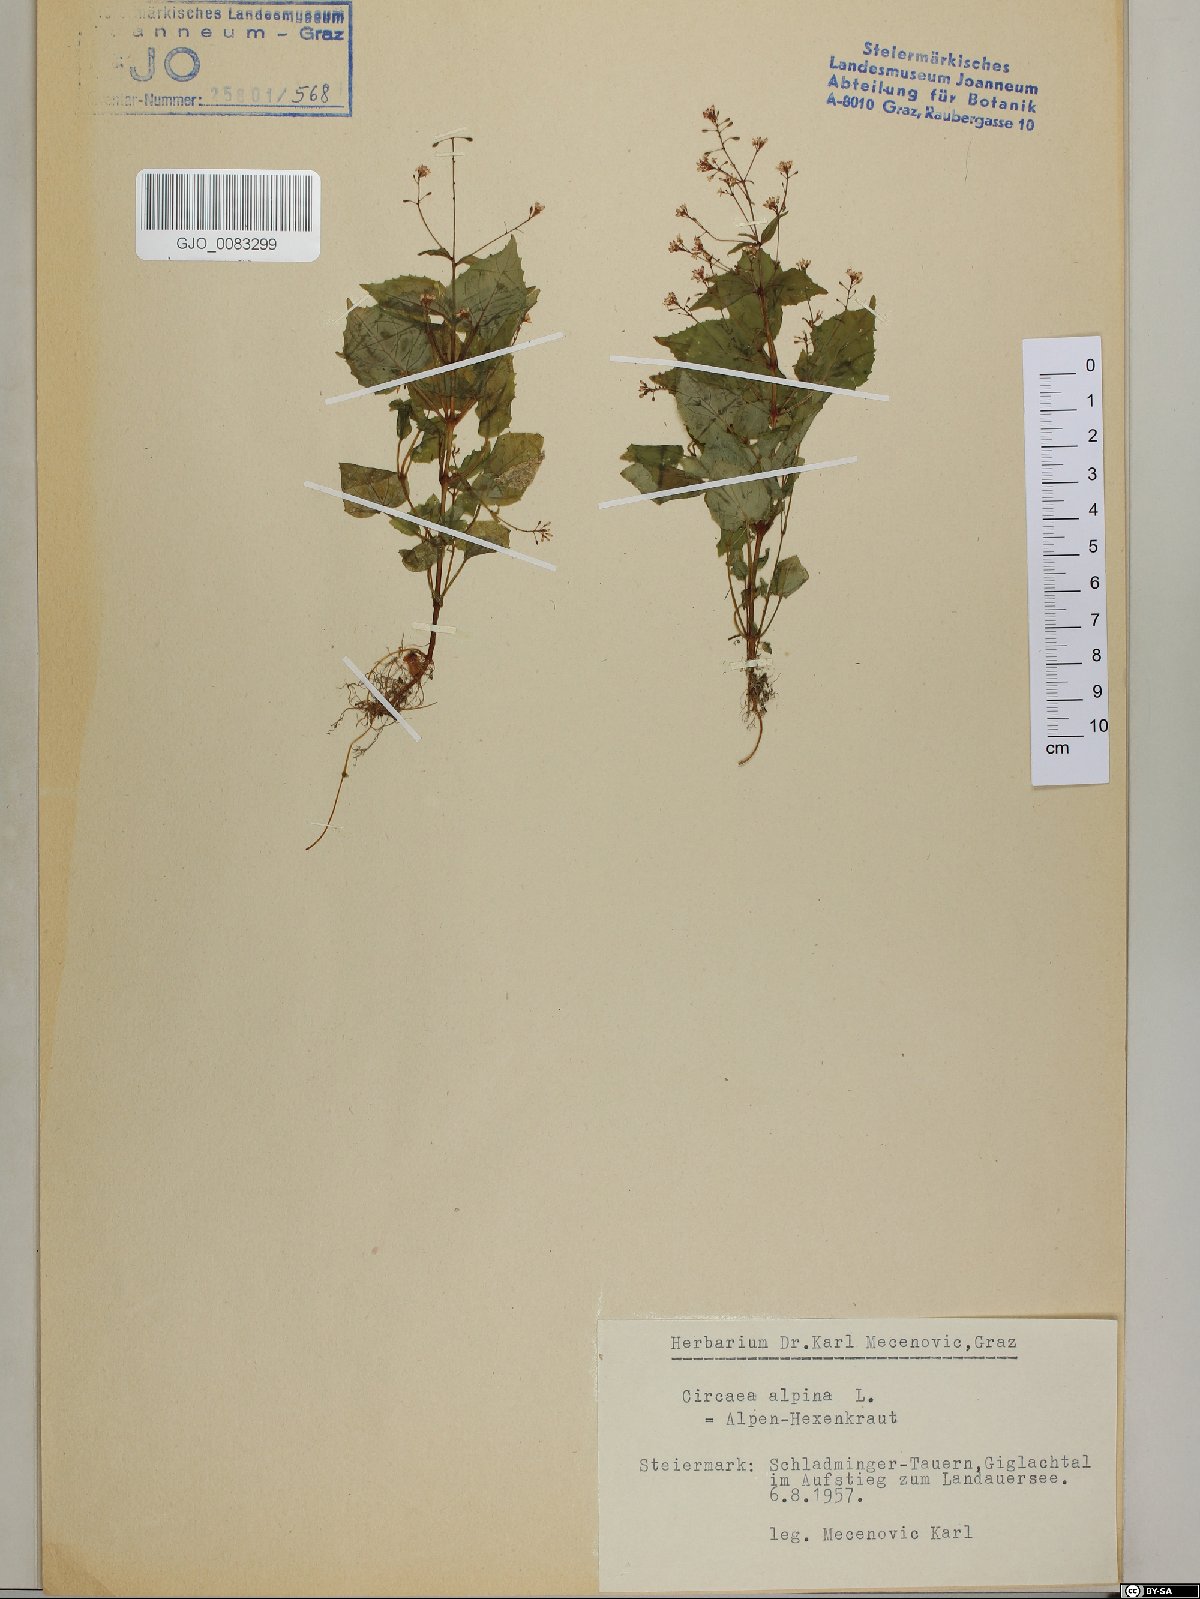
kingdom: Plantae
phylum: Tracheophyta
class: Magnoliopsida
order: Myrtales
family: Onagraceae
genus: Circaea
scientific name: Circaea alpina
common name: Alpine enchanter's-nightshade
